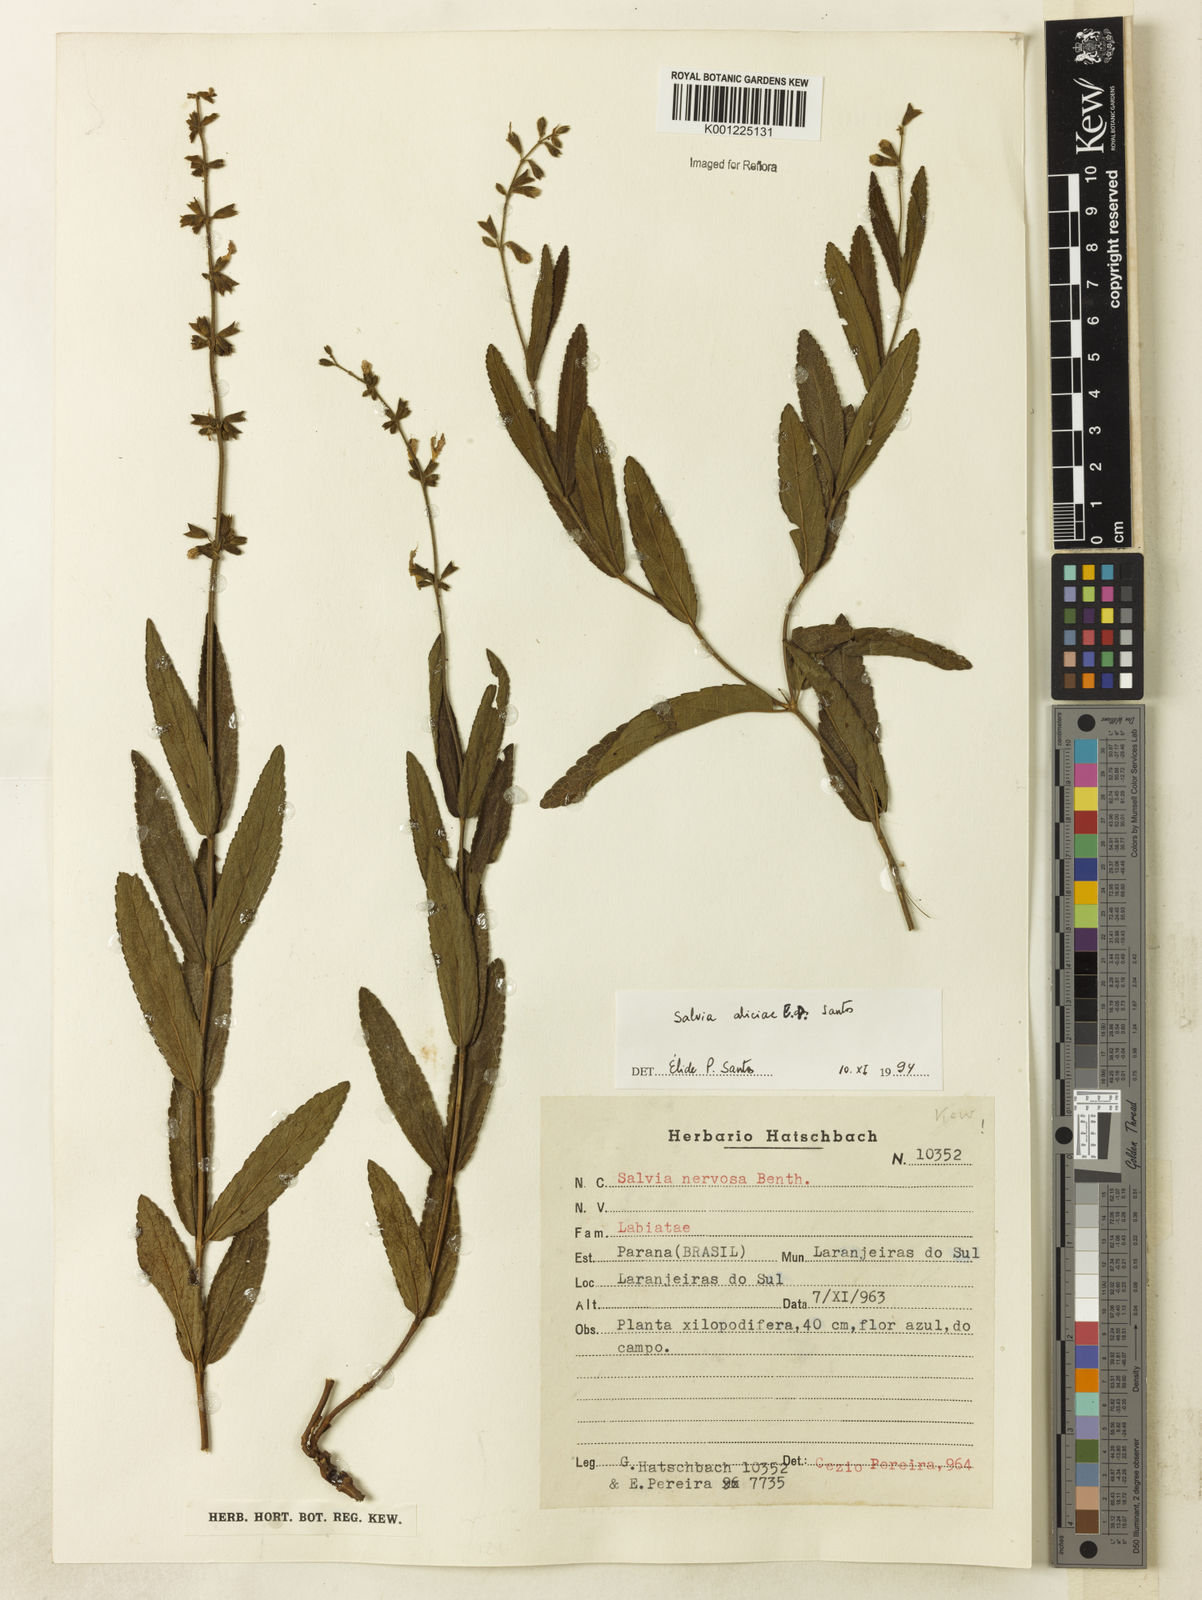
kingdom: Plantae
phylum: Tracheophyta
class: Magnoliopsida
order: Lamiales
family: Lamiaceae
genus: Salvia
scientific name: Salvia aliciae
